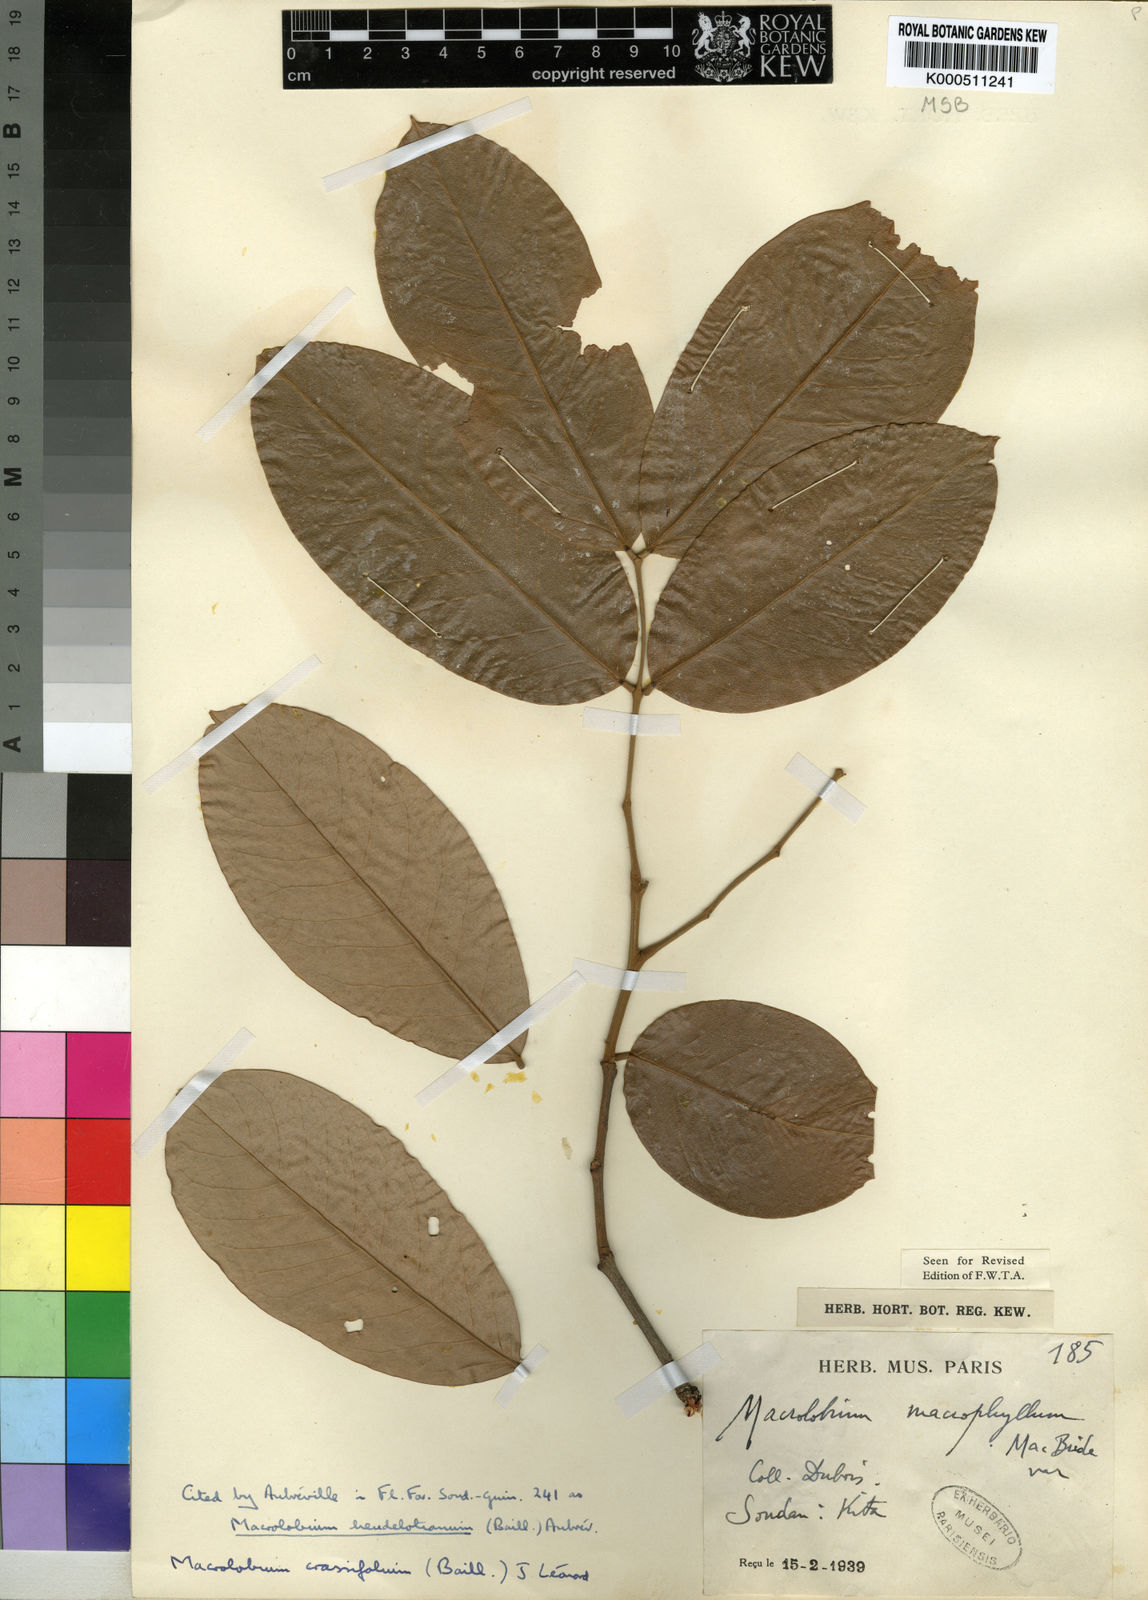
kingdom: Plantae
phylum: Tracheophyta
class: Magnoliopsida
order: Fabales
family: Fabaceae
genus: Anthonotha
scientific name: Anthonotha
